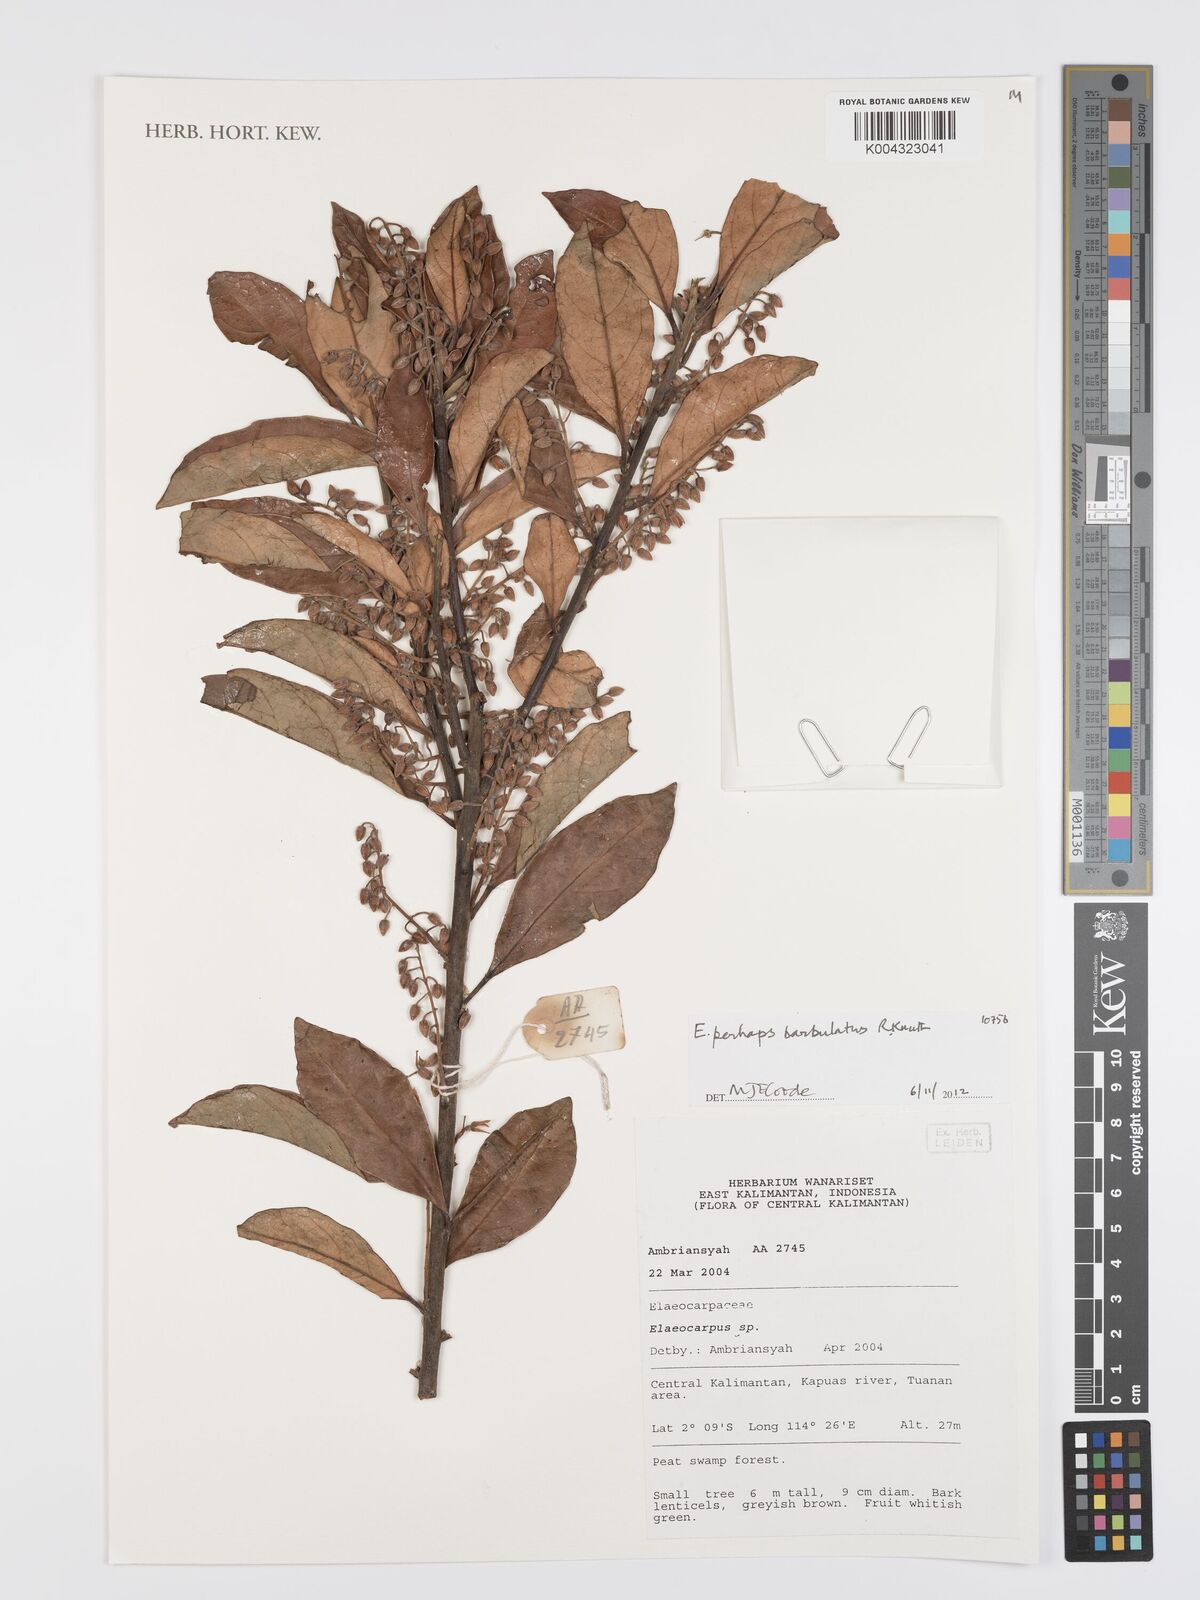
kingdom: Plantae
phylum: Tracheophyta
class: Magnoliopsida
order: Oxalidales
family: Elaeocarpaceae
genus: Elaeocarpus
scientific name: Elaeocarpus barbulatus
